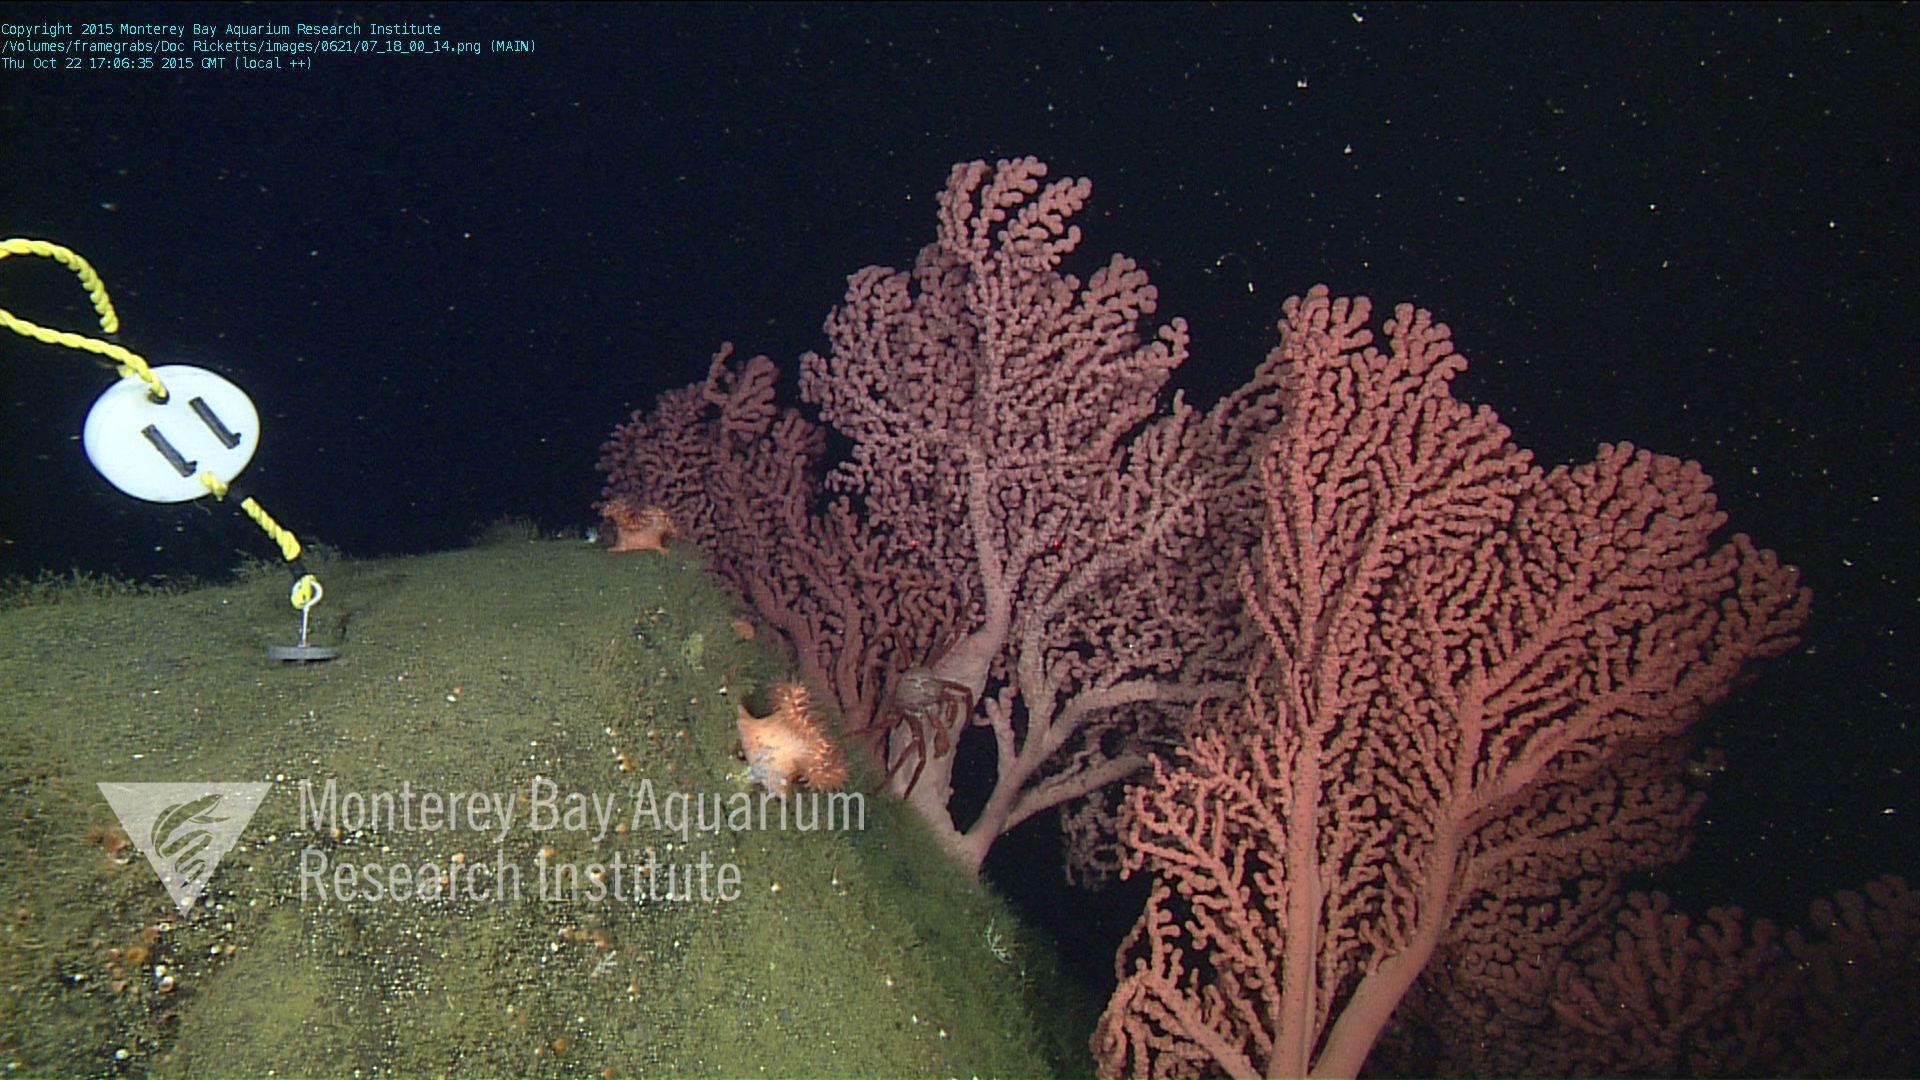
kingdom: Animalia
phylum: Cnidaria
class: Anthozoa
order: Scleralcyonacea
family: Coralliidae
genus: Paragorgia
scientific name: Paragorgia arborea
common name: Bubble gum coral
